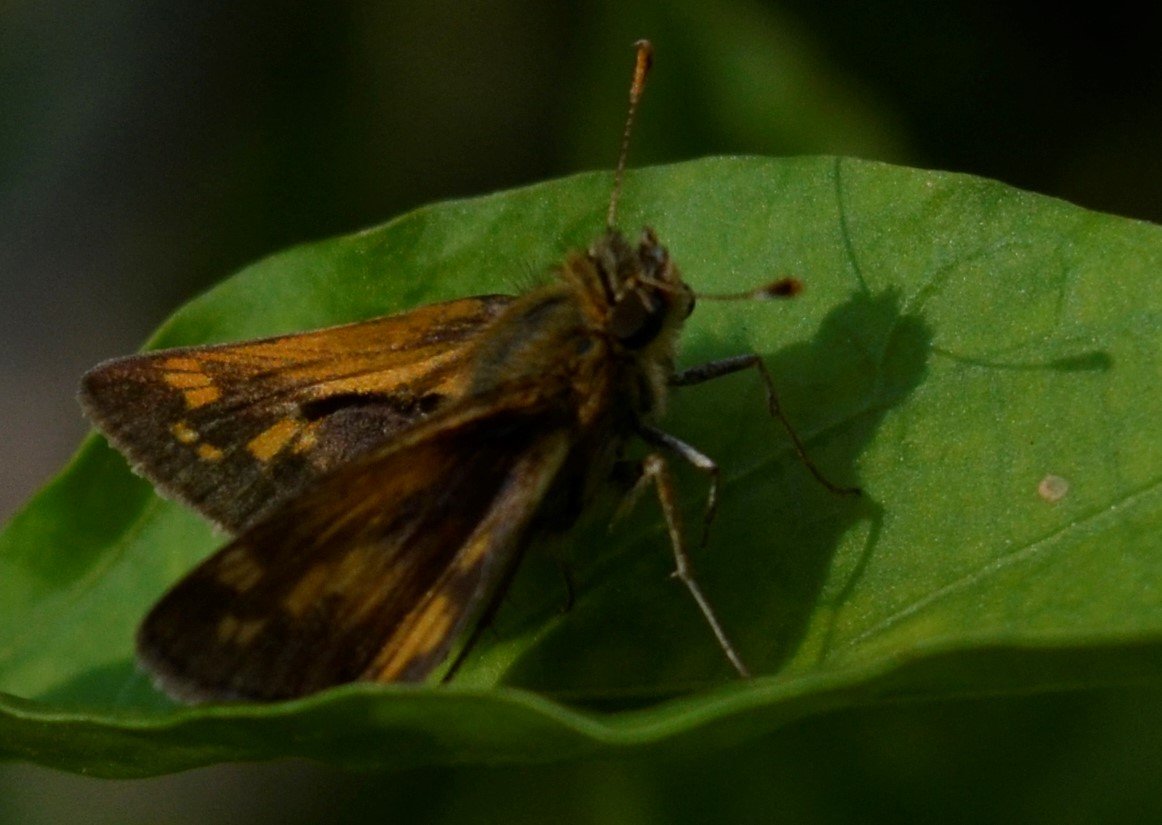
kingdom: Animalia
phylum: Arthropoda
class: Insecta
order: Lepidoptera
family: Hesperiidae
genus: Polites
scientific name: Polites coras
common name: Peck's Skipper
